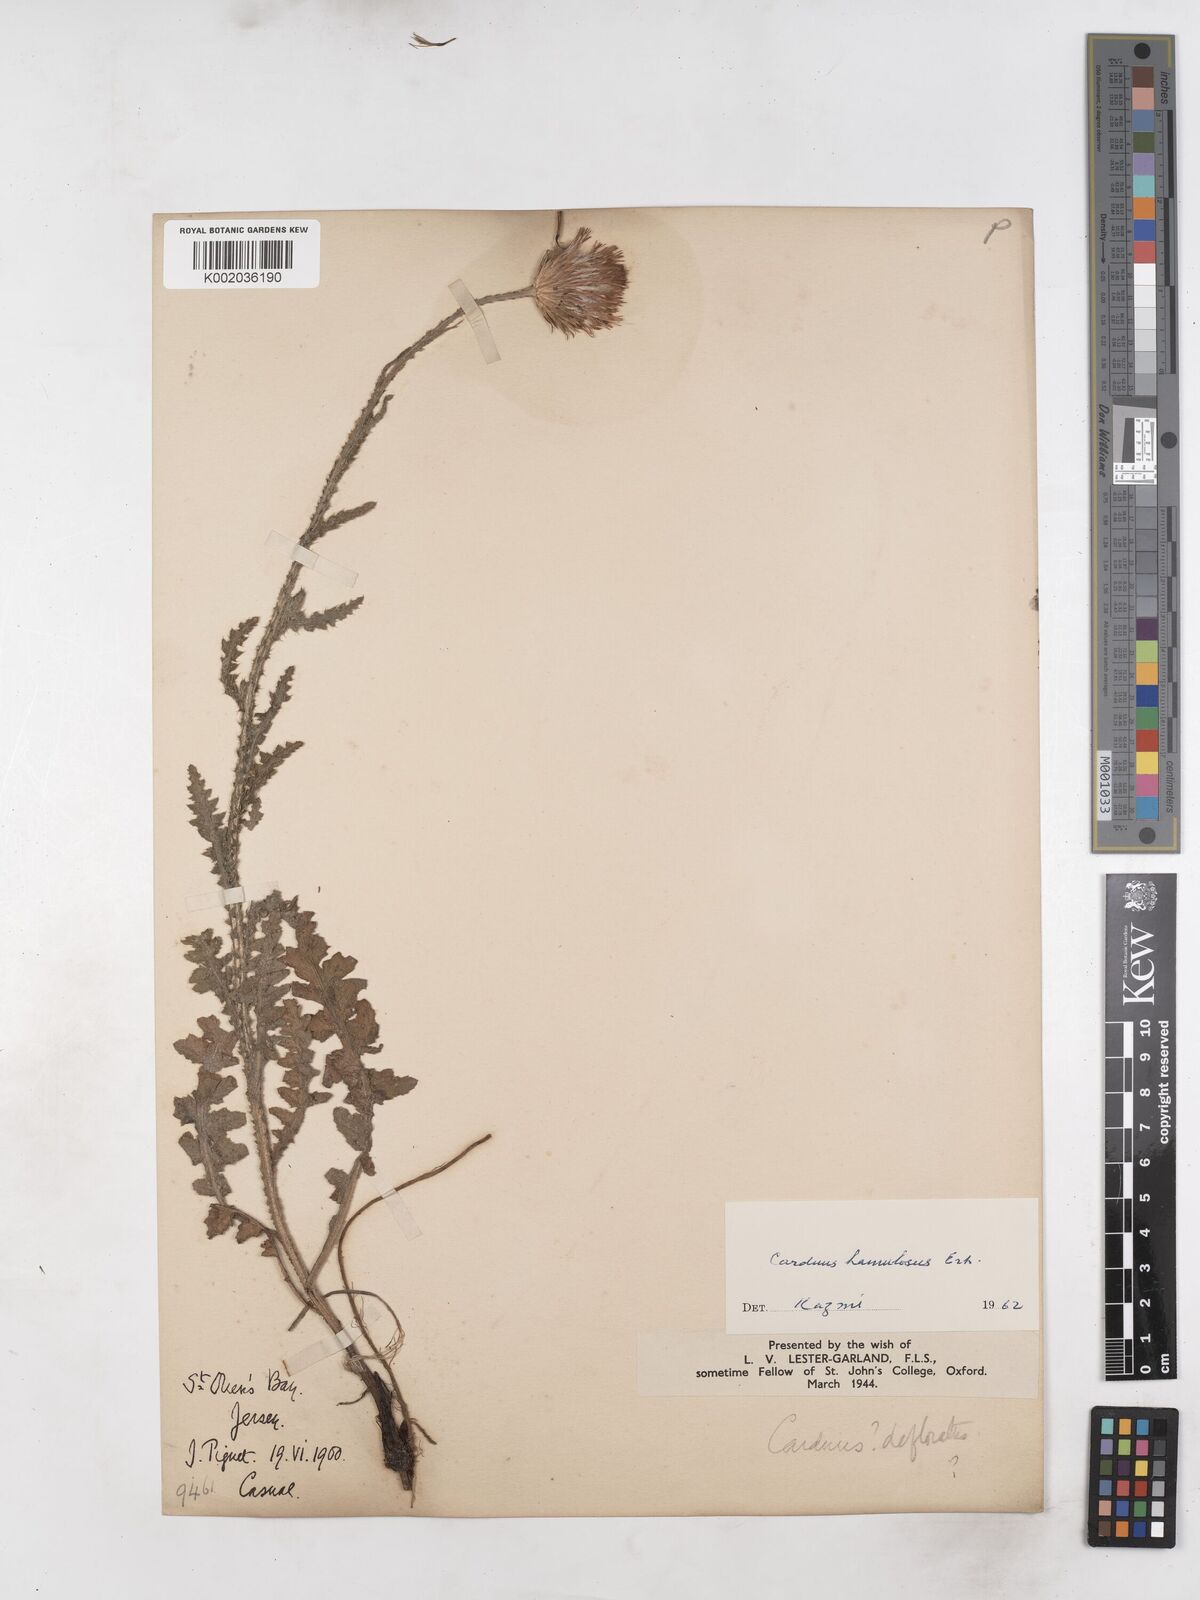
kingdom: Plantae
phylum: Tracheophyta
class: Magnoliopsida
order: Asterales
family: Asteraceae
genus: Carduus
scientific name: Carduus hamulosus
